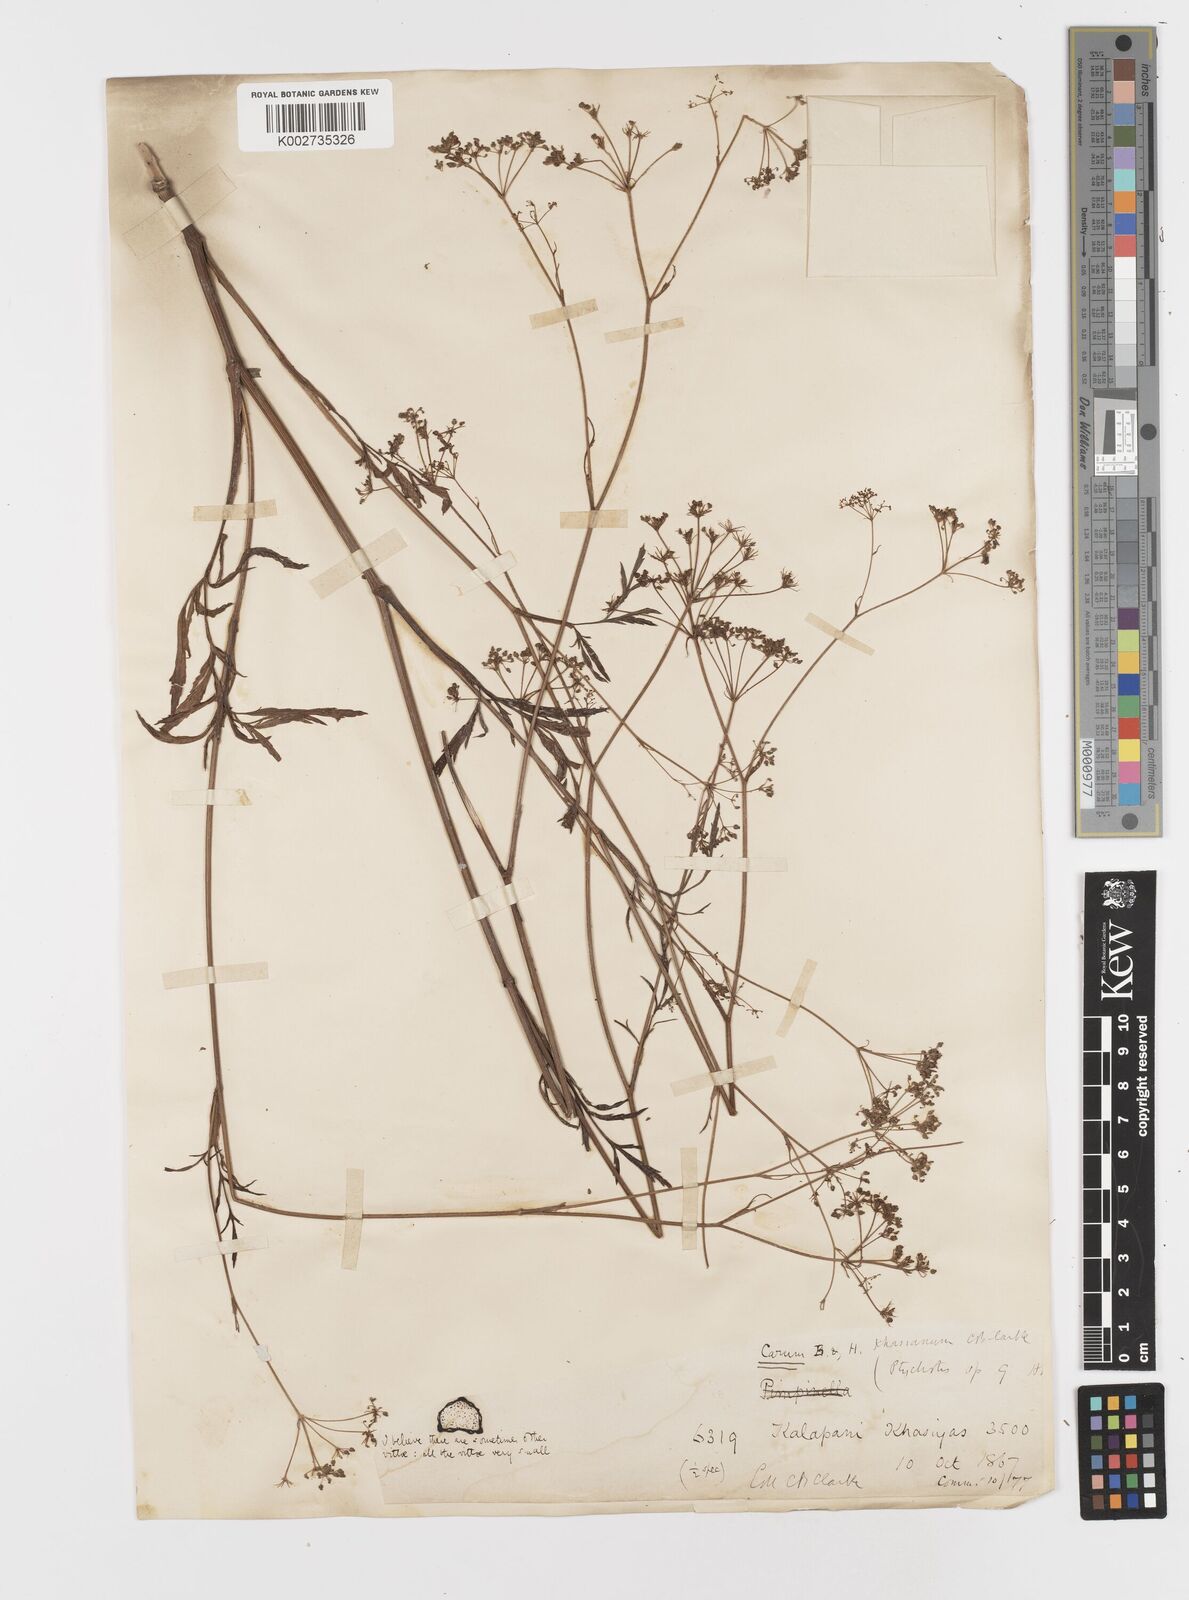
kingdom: Plantae
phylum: Tracheophyta
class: Magnoliopsida
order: Apiales
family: Apiaceae
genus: Trachyspermum
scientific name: Trachyspermum khasianum
